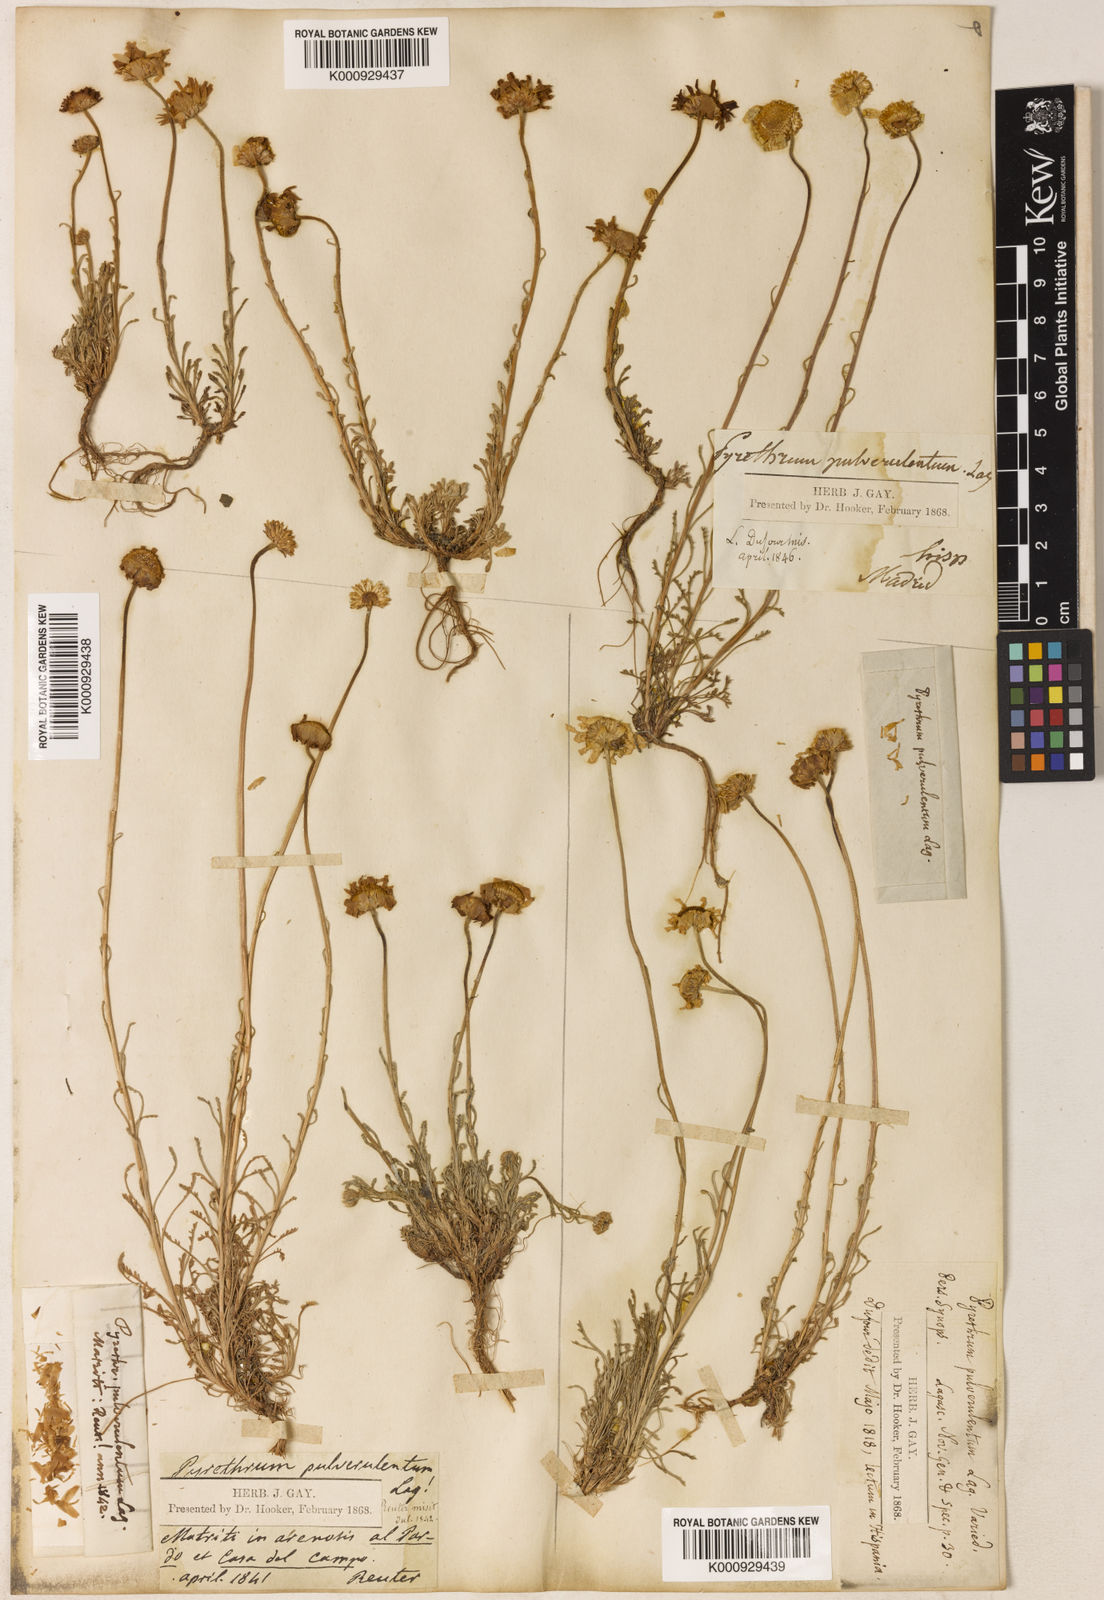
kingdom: Plantae
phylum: Tracheophyta
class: Magnoliopsida
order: Asterales
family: Asteraceae
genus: Leucanthemopsis
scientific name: Leucanthemopsis pulverulenta
